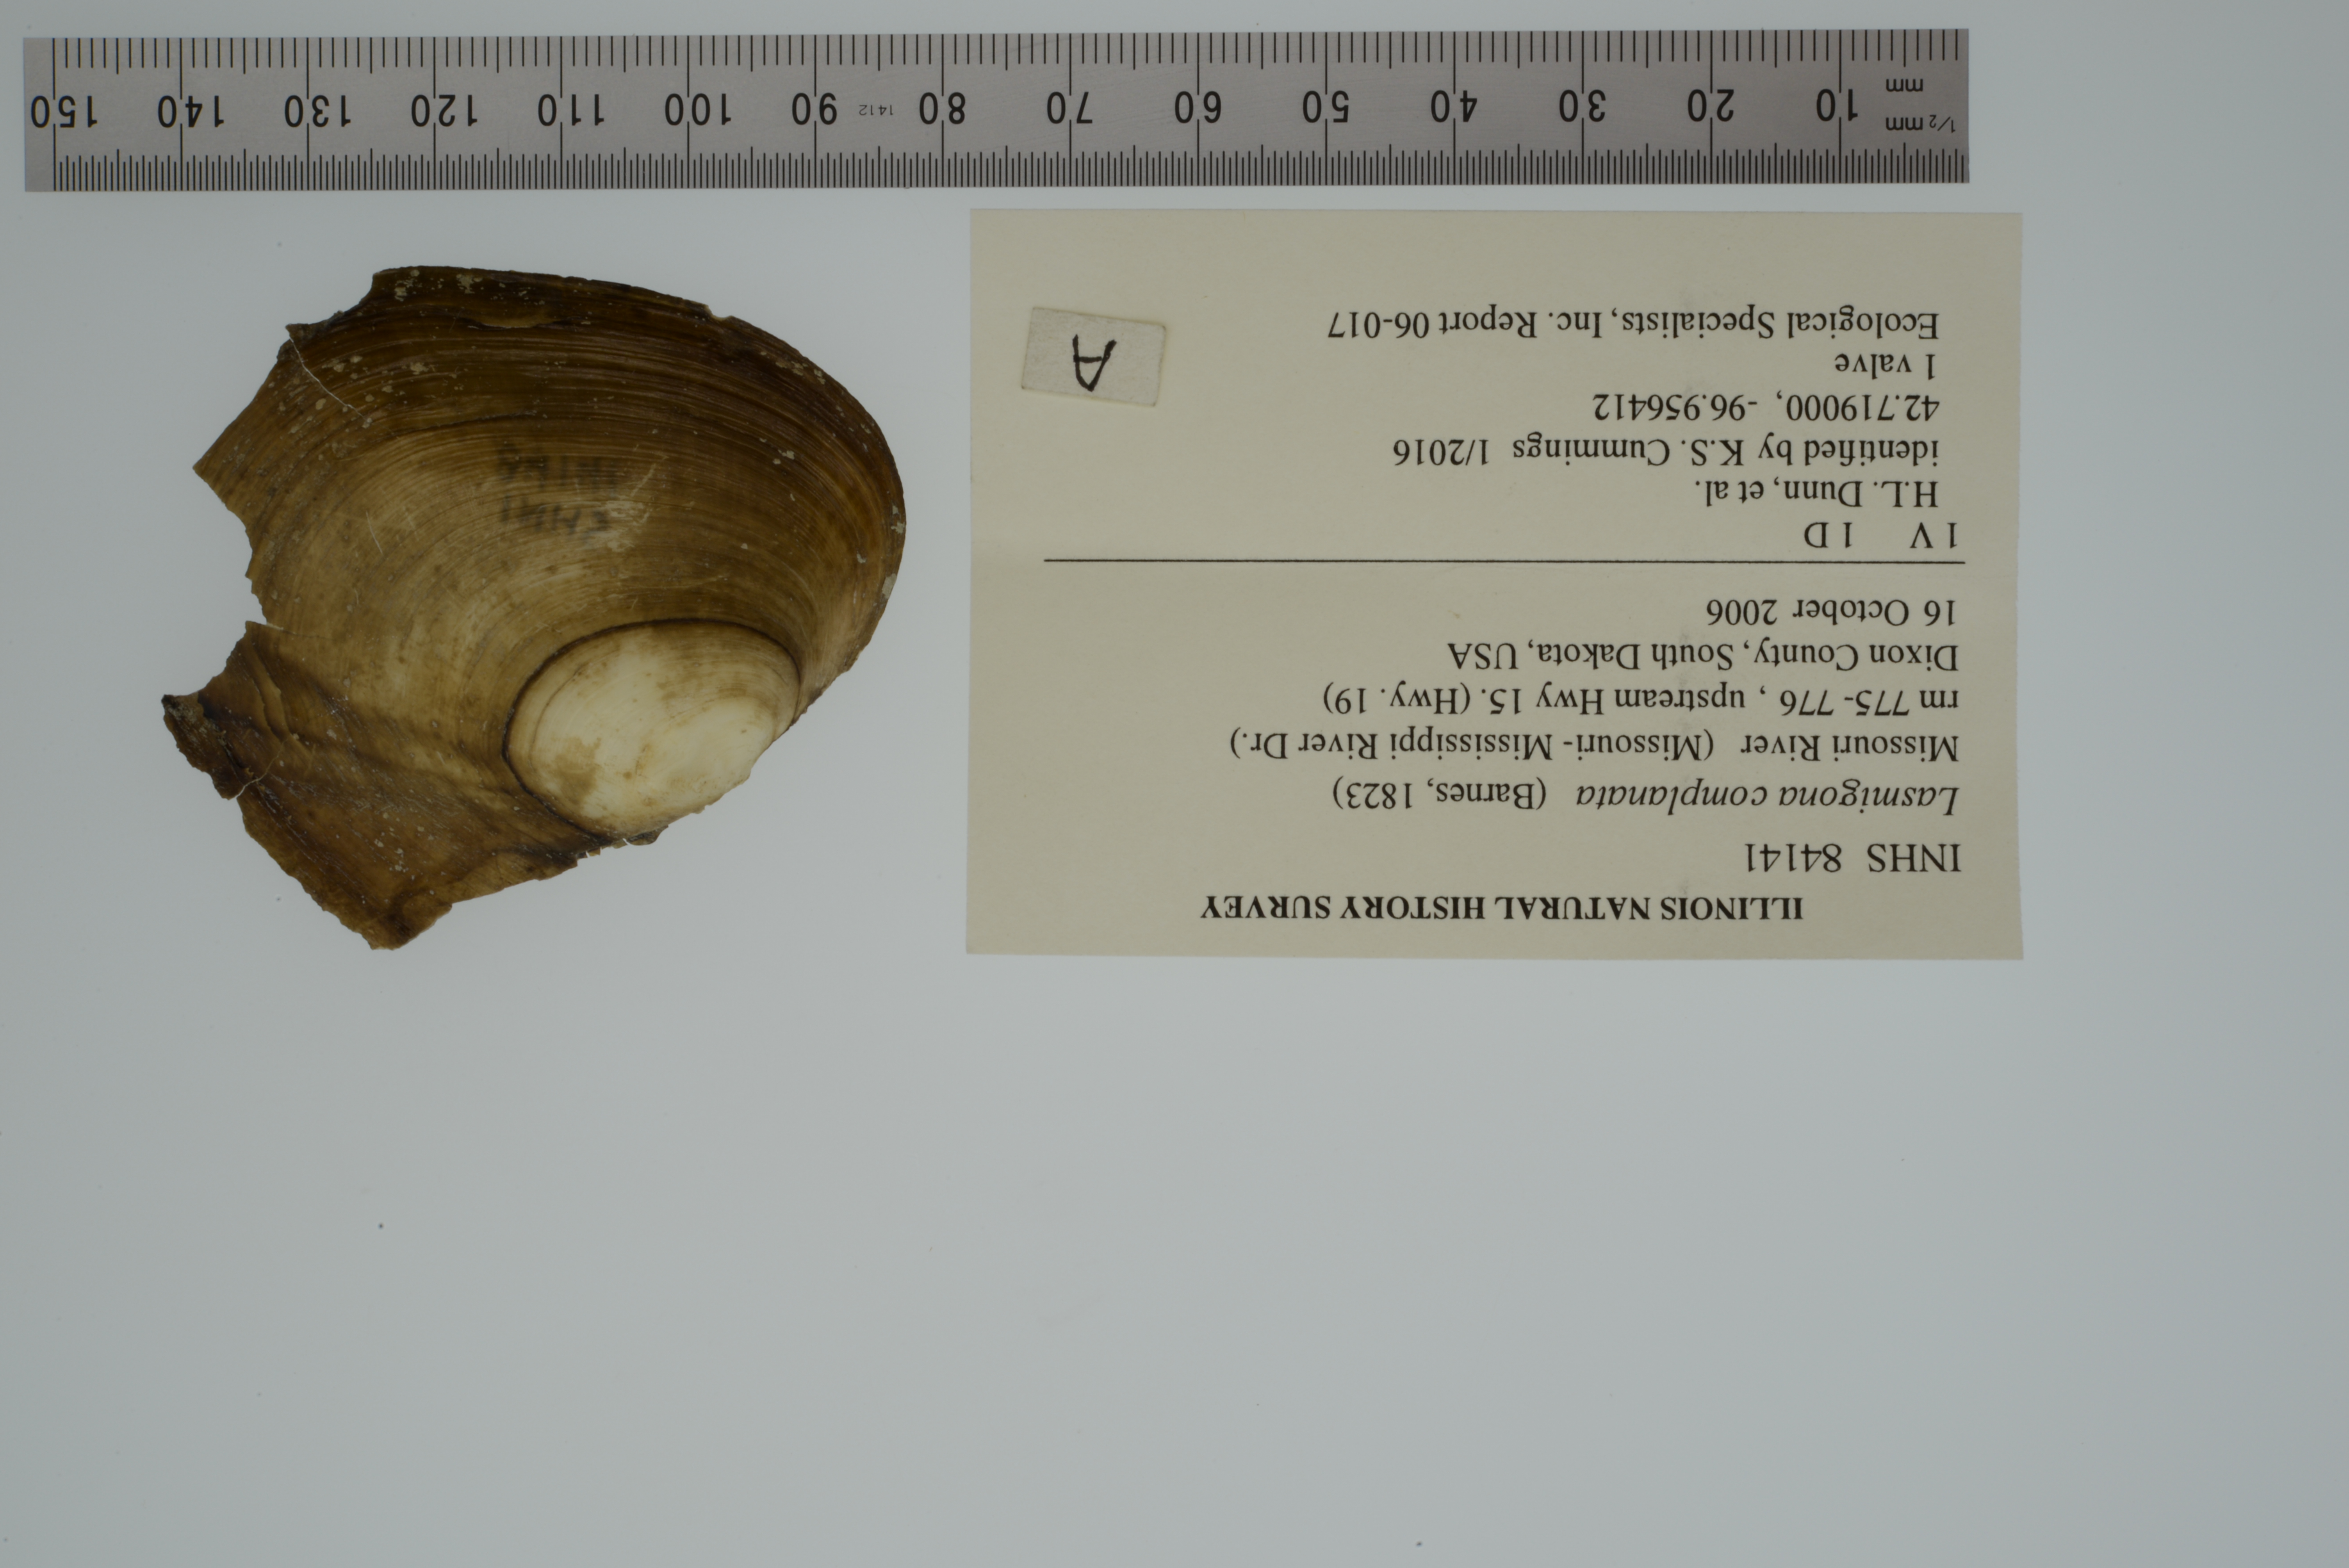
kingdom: Animalia
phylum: Mollusca
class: Bivalvia
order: Unionida
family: Unionidae
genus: Lasmigona
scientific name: Lasmigona complanata
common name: White heelsplitter
